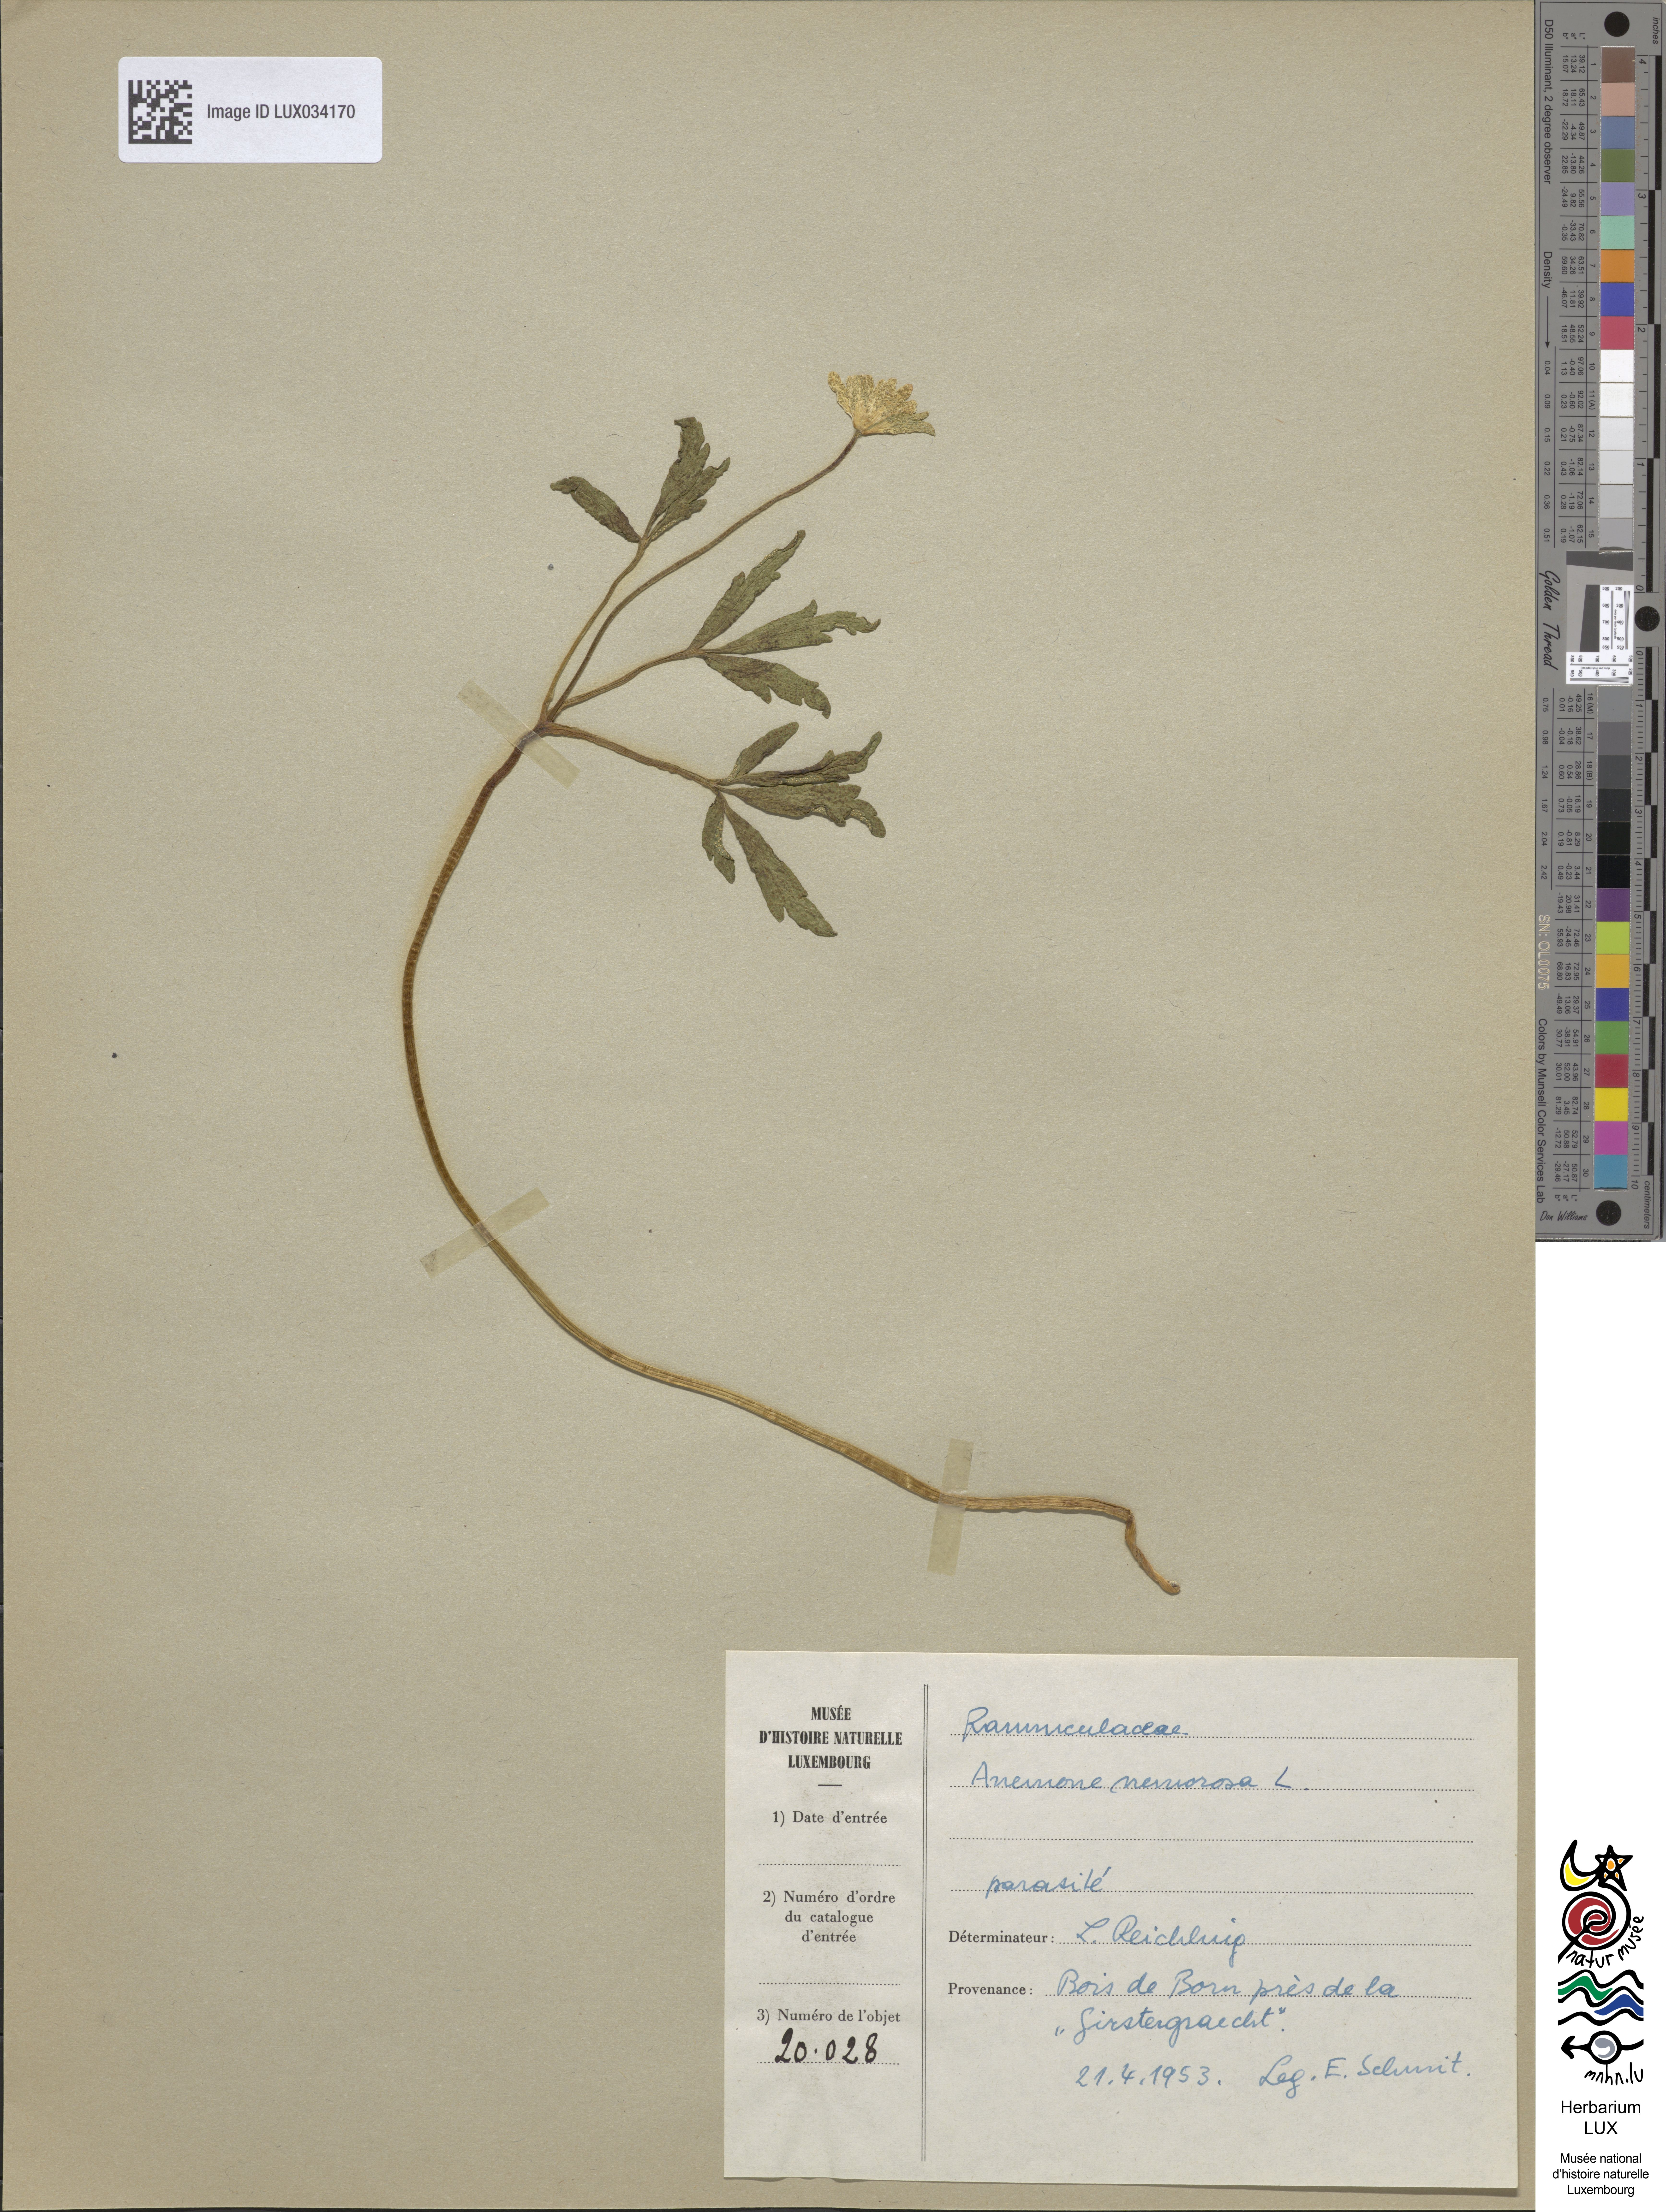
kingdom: Plantae
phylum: Tracheophyta
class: Magnoliopsida
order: Ranunculales
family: Ranunculaceae
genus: Anemone
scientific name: Anemone nemorosa
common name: Wood anemone
